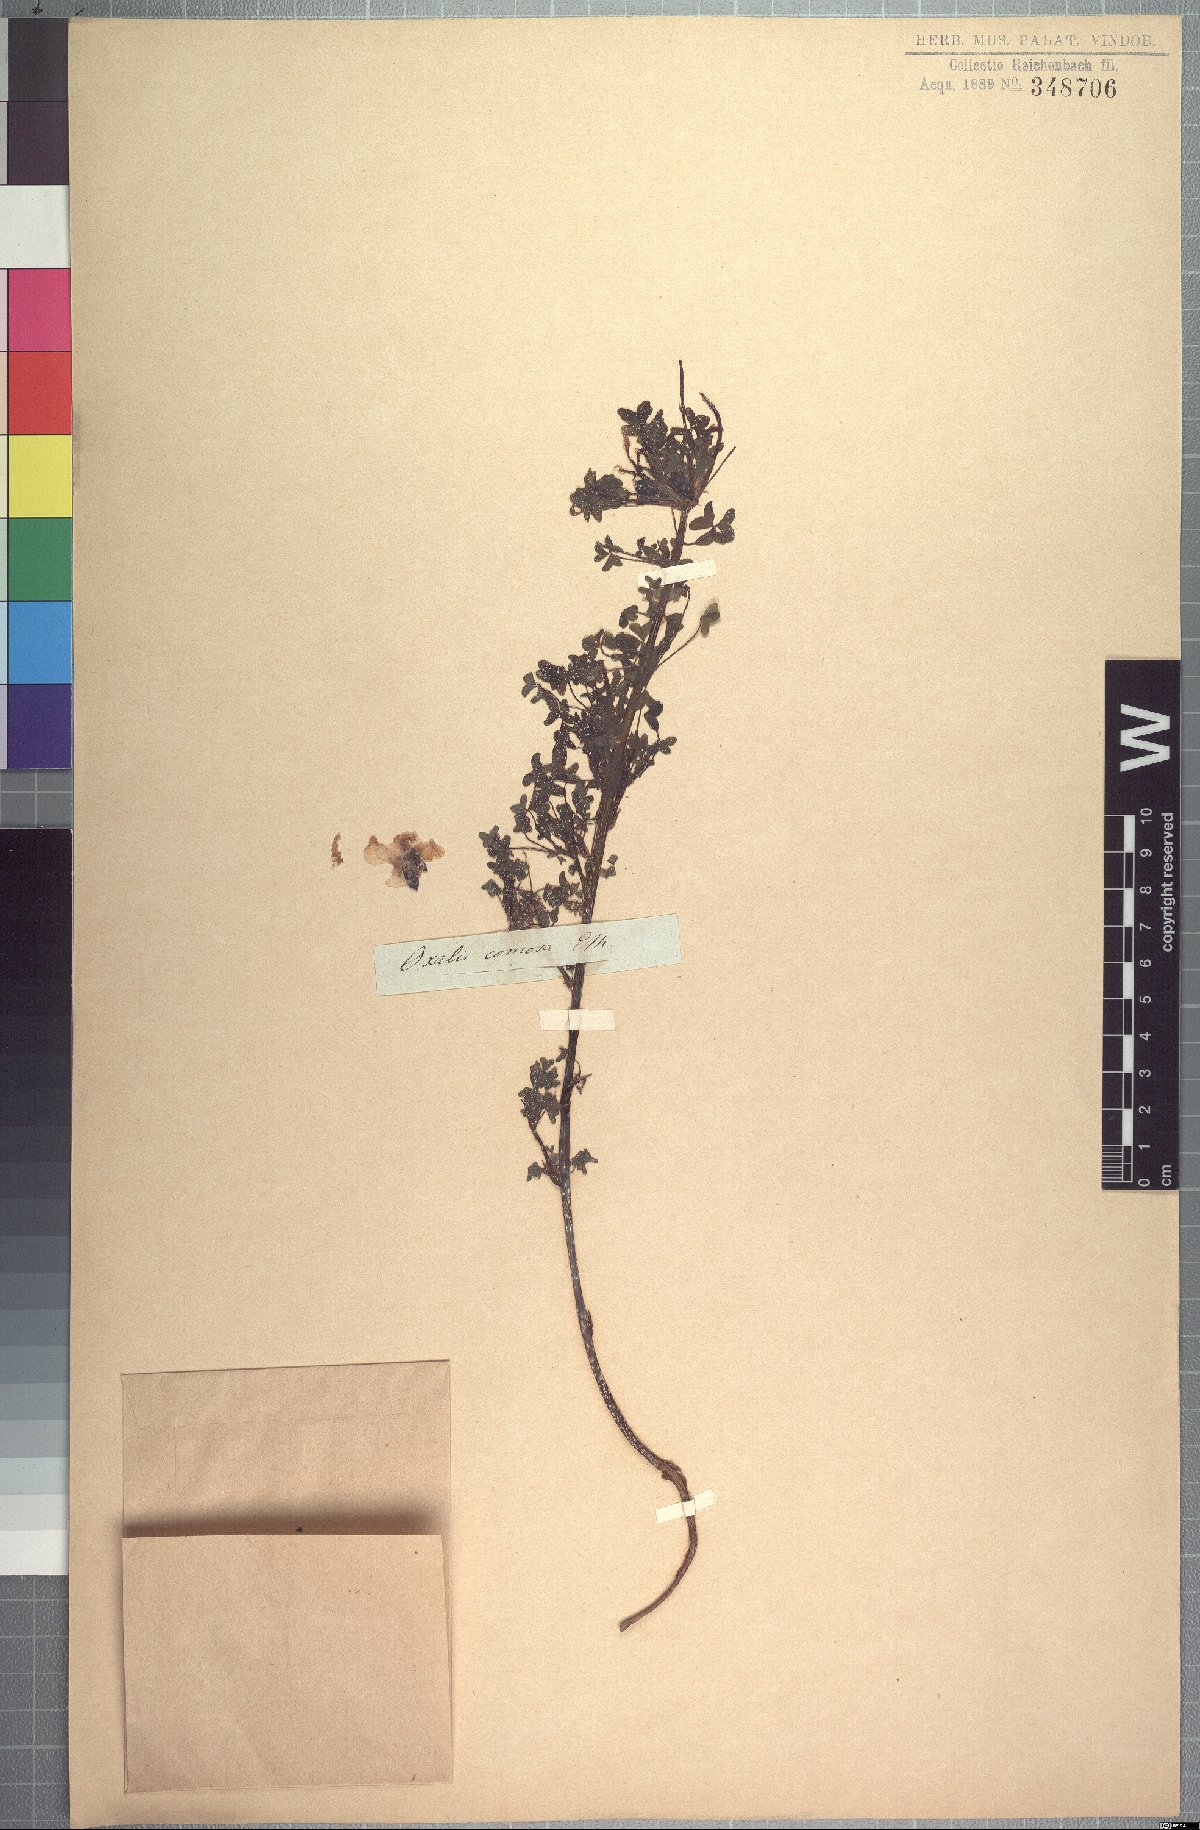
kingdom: Plantae
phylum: Tracheophyta
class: Magnoliopsida
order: Oxalidales
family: Oxalidaceae
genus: Oxalis
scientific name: Oxalis comosa
